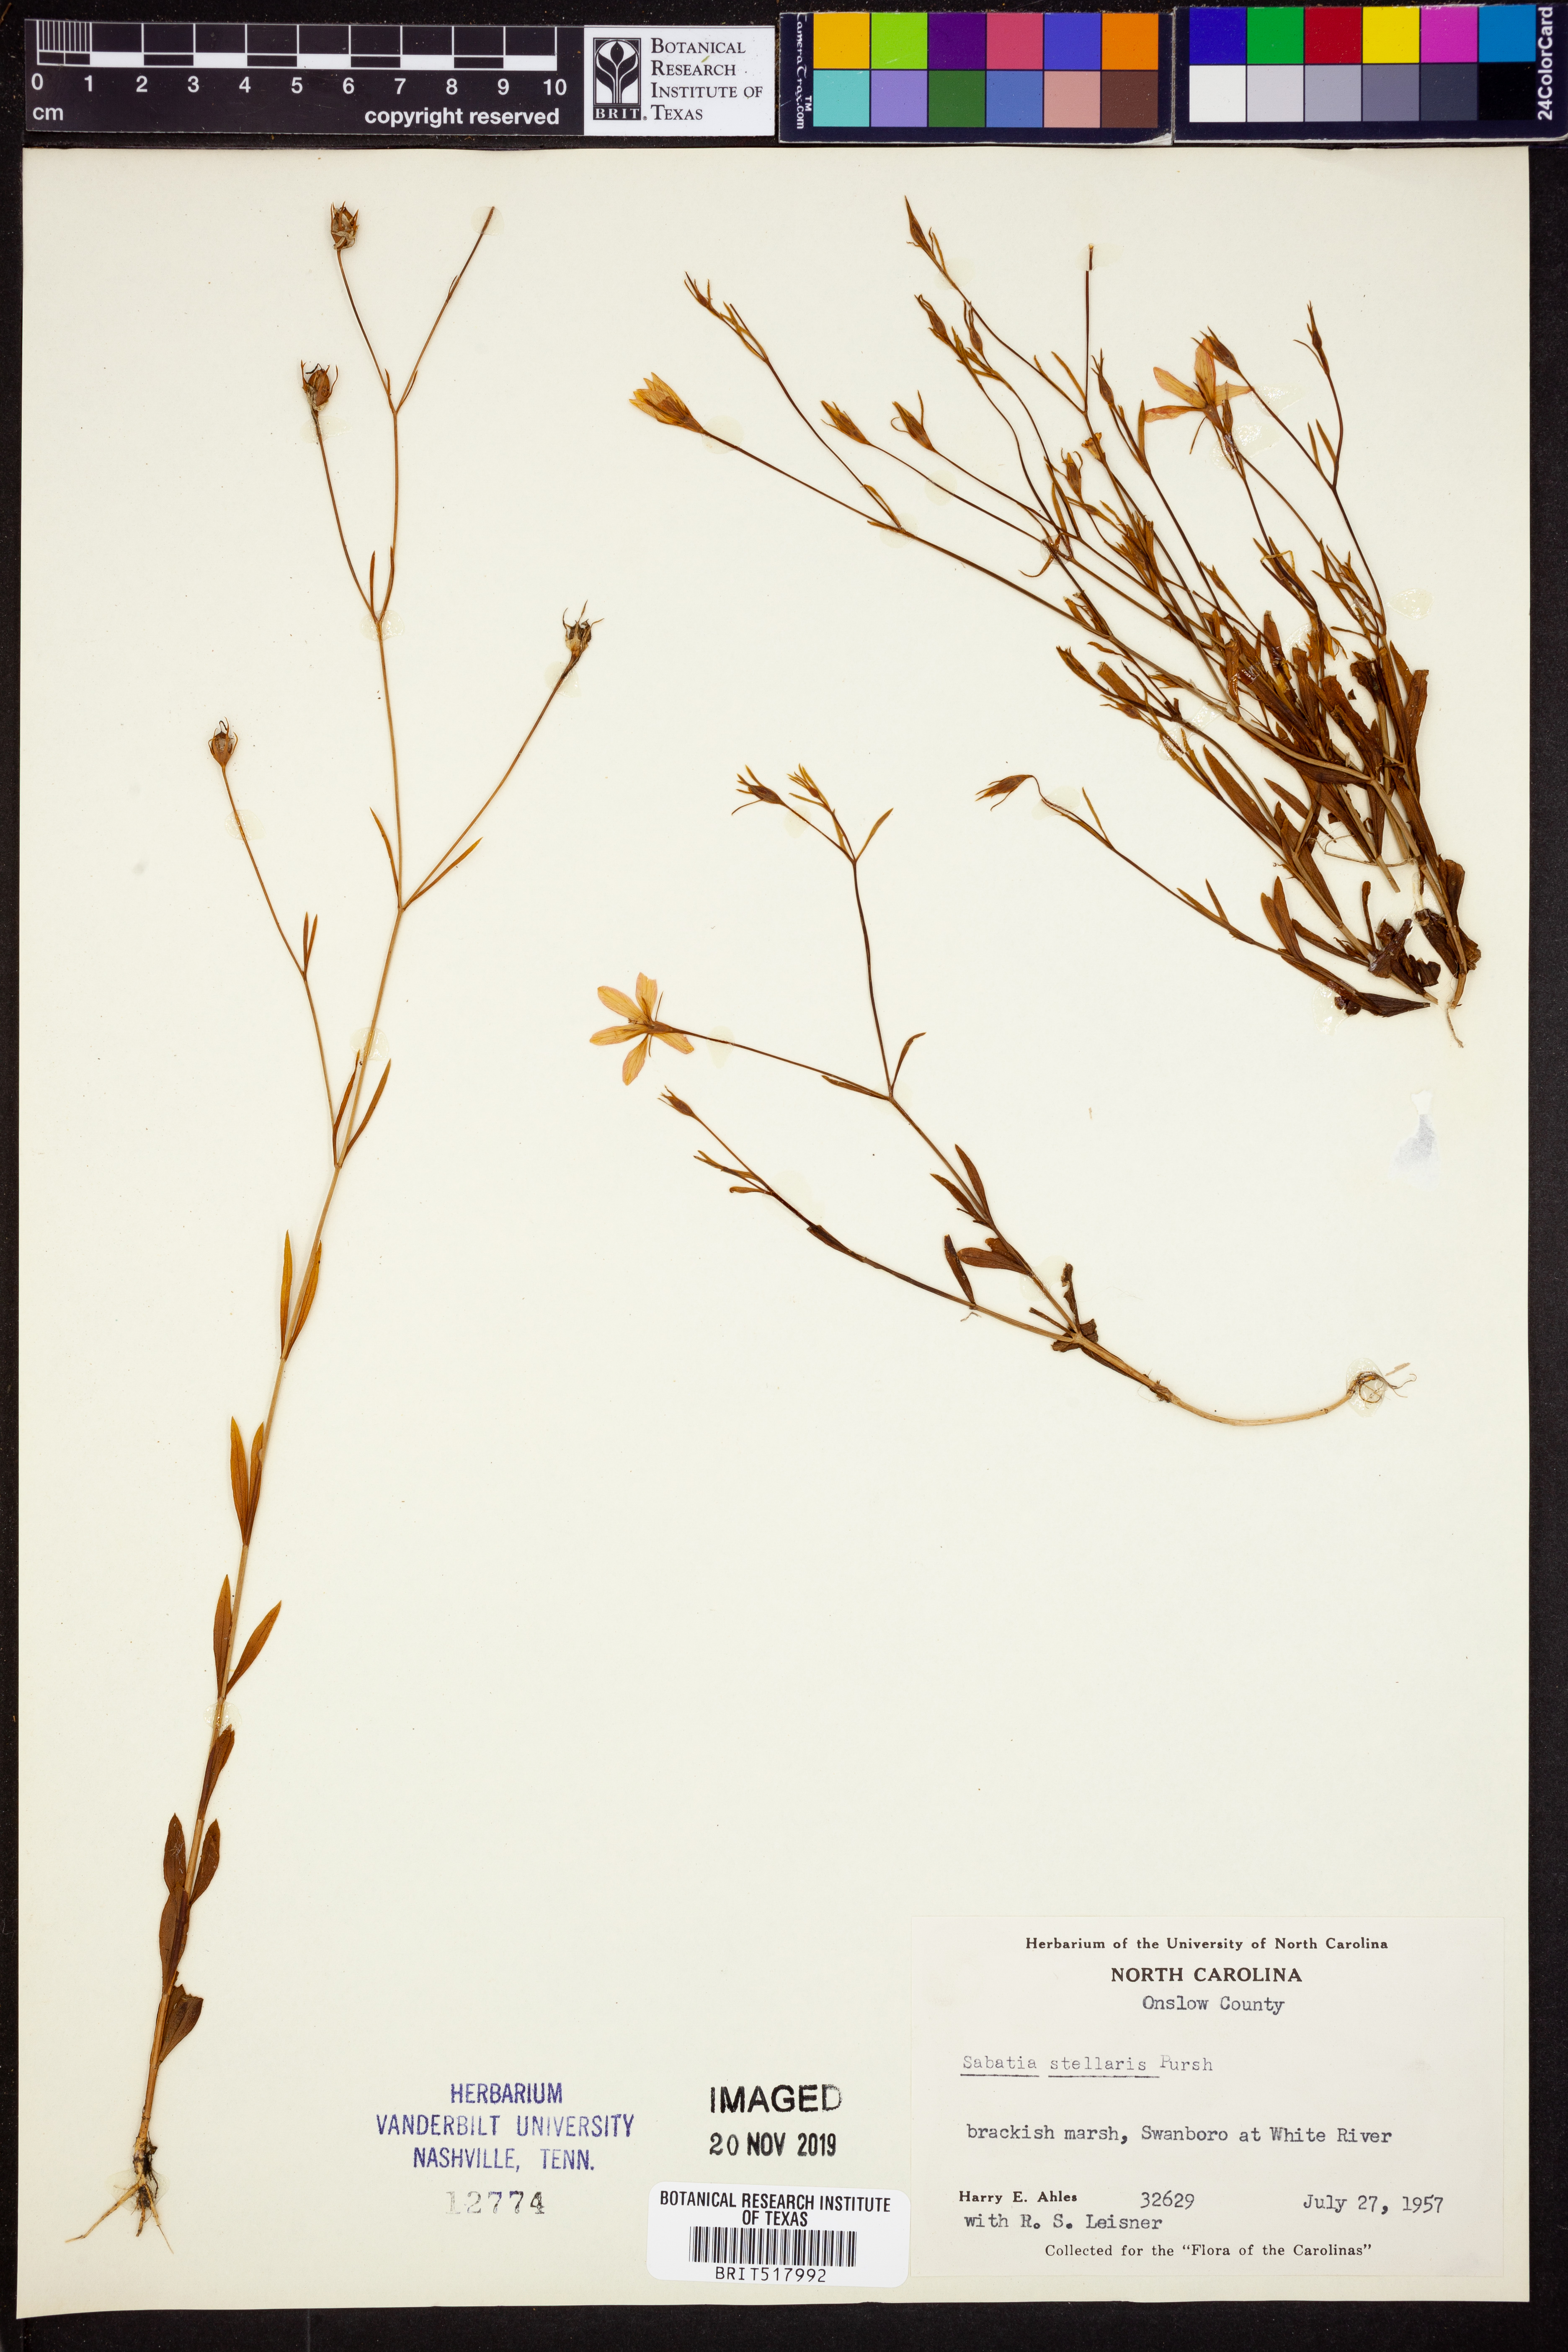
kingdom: Plantae
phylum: Tracheophyta
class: Magnoliopsida
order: Gentianales
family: Gentianaceae
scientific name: Gentianaceae
